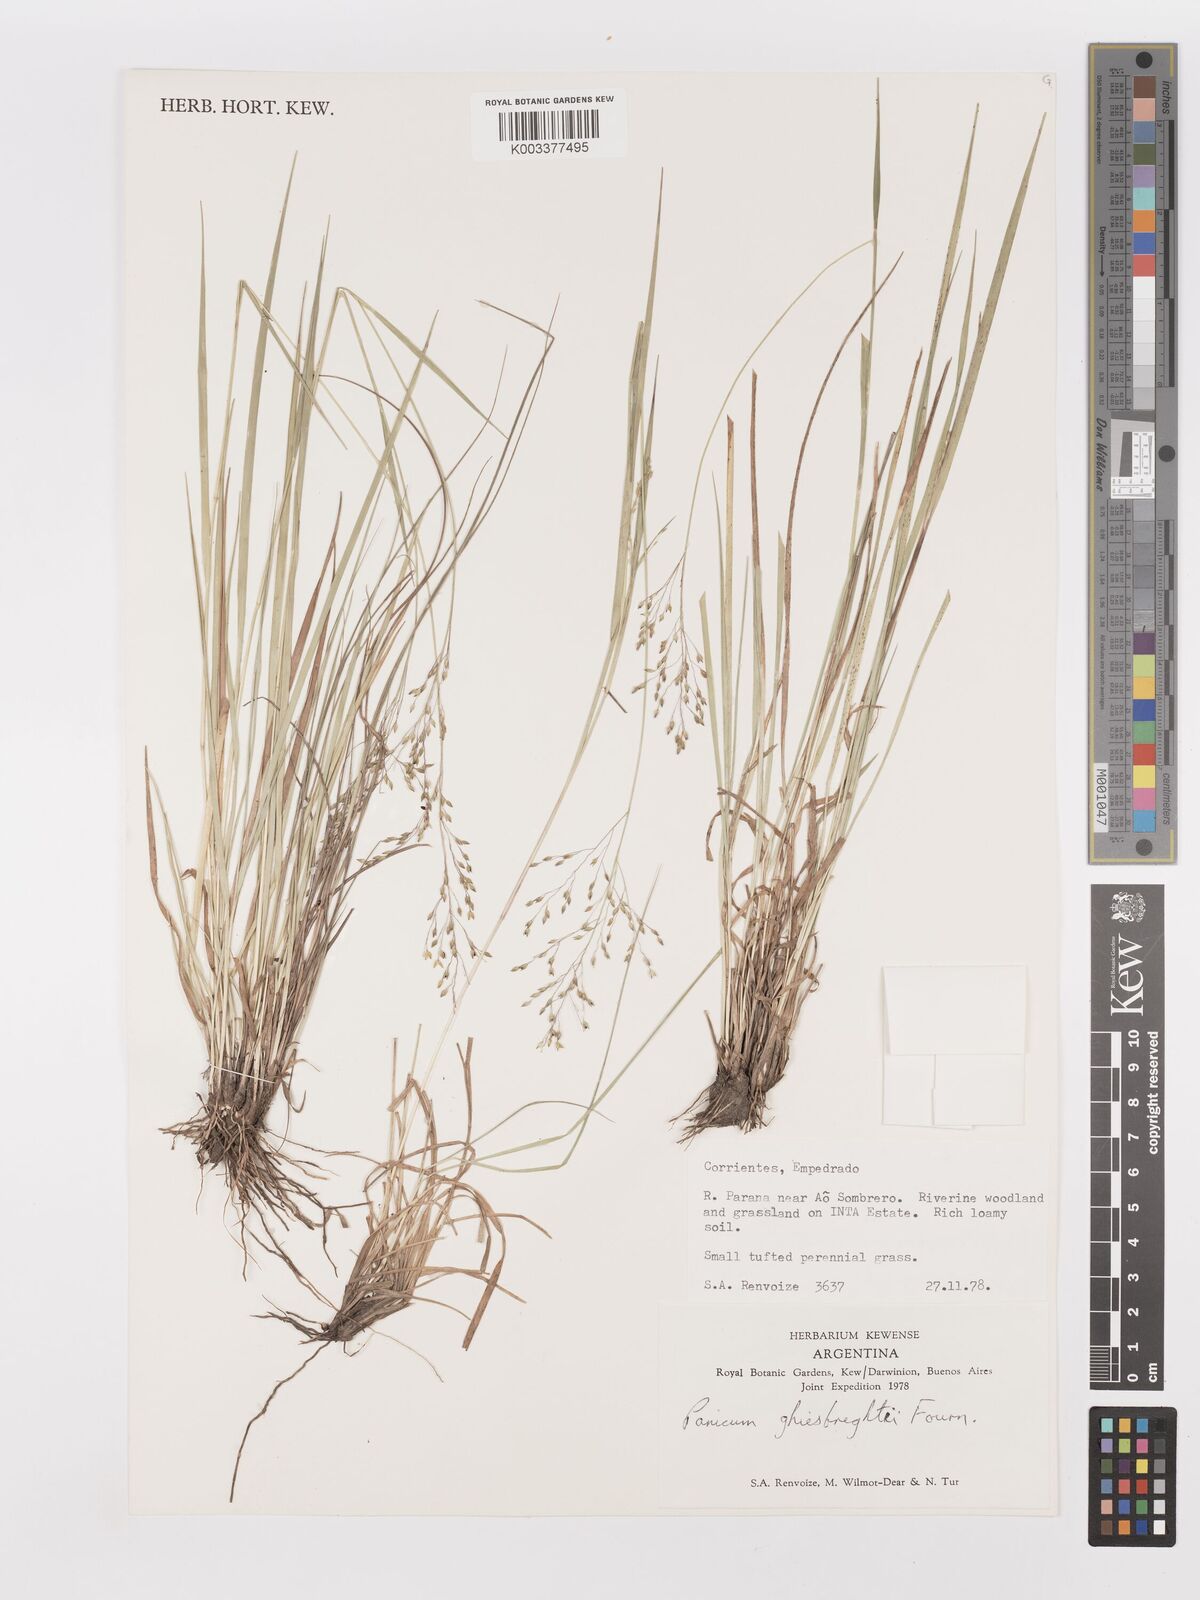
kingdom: Plantae
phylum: Tracheophyta
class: Liliopsida
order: Poales
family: Poaceae
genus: Panicum
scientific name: Panicum peladoense
